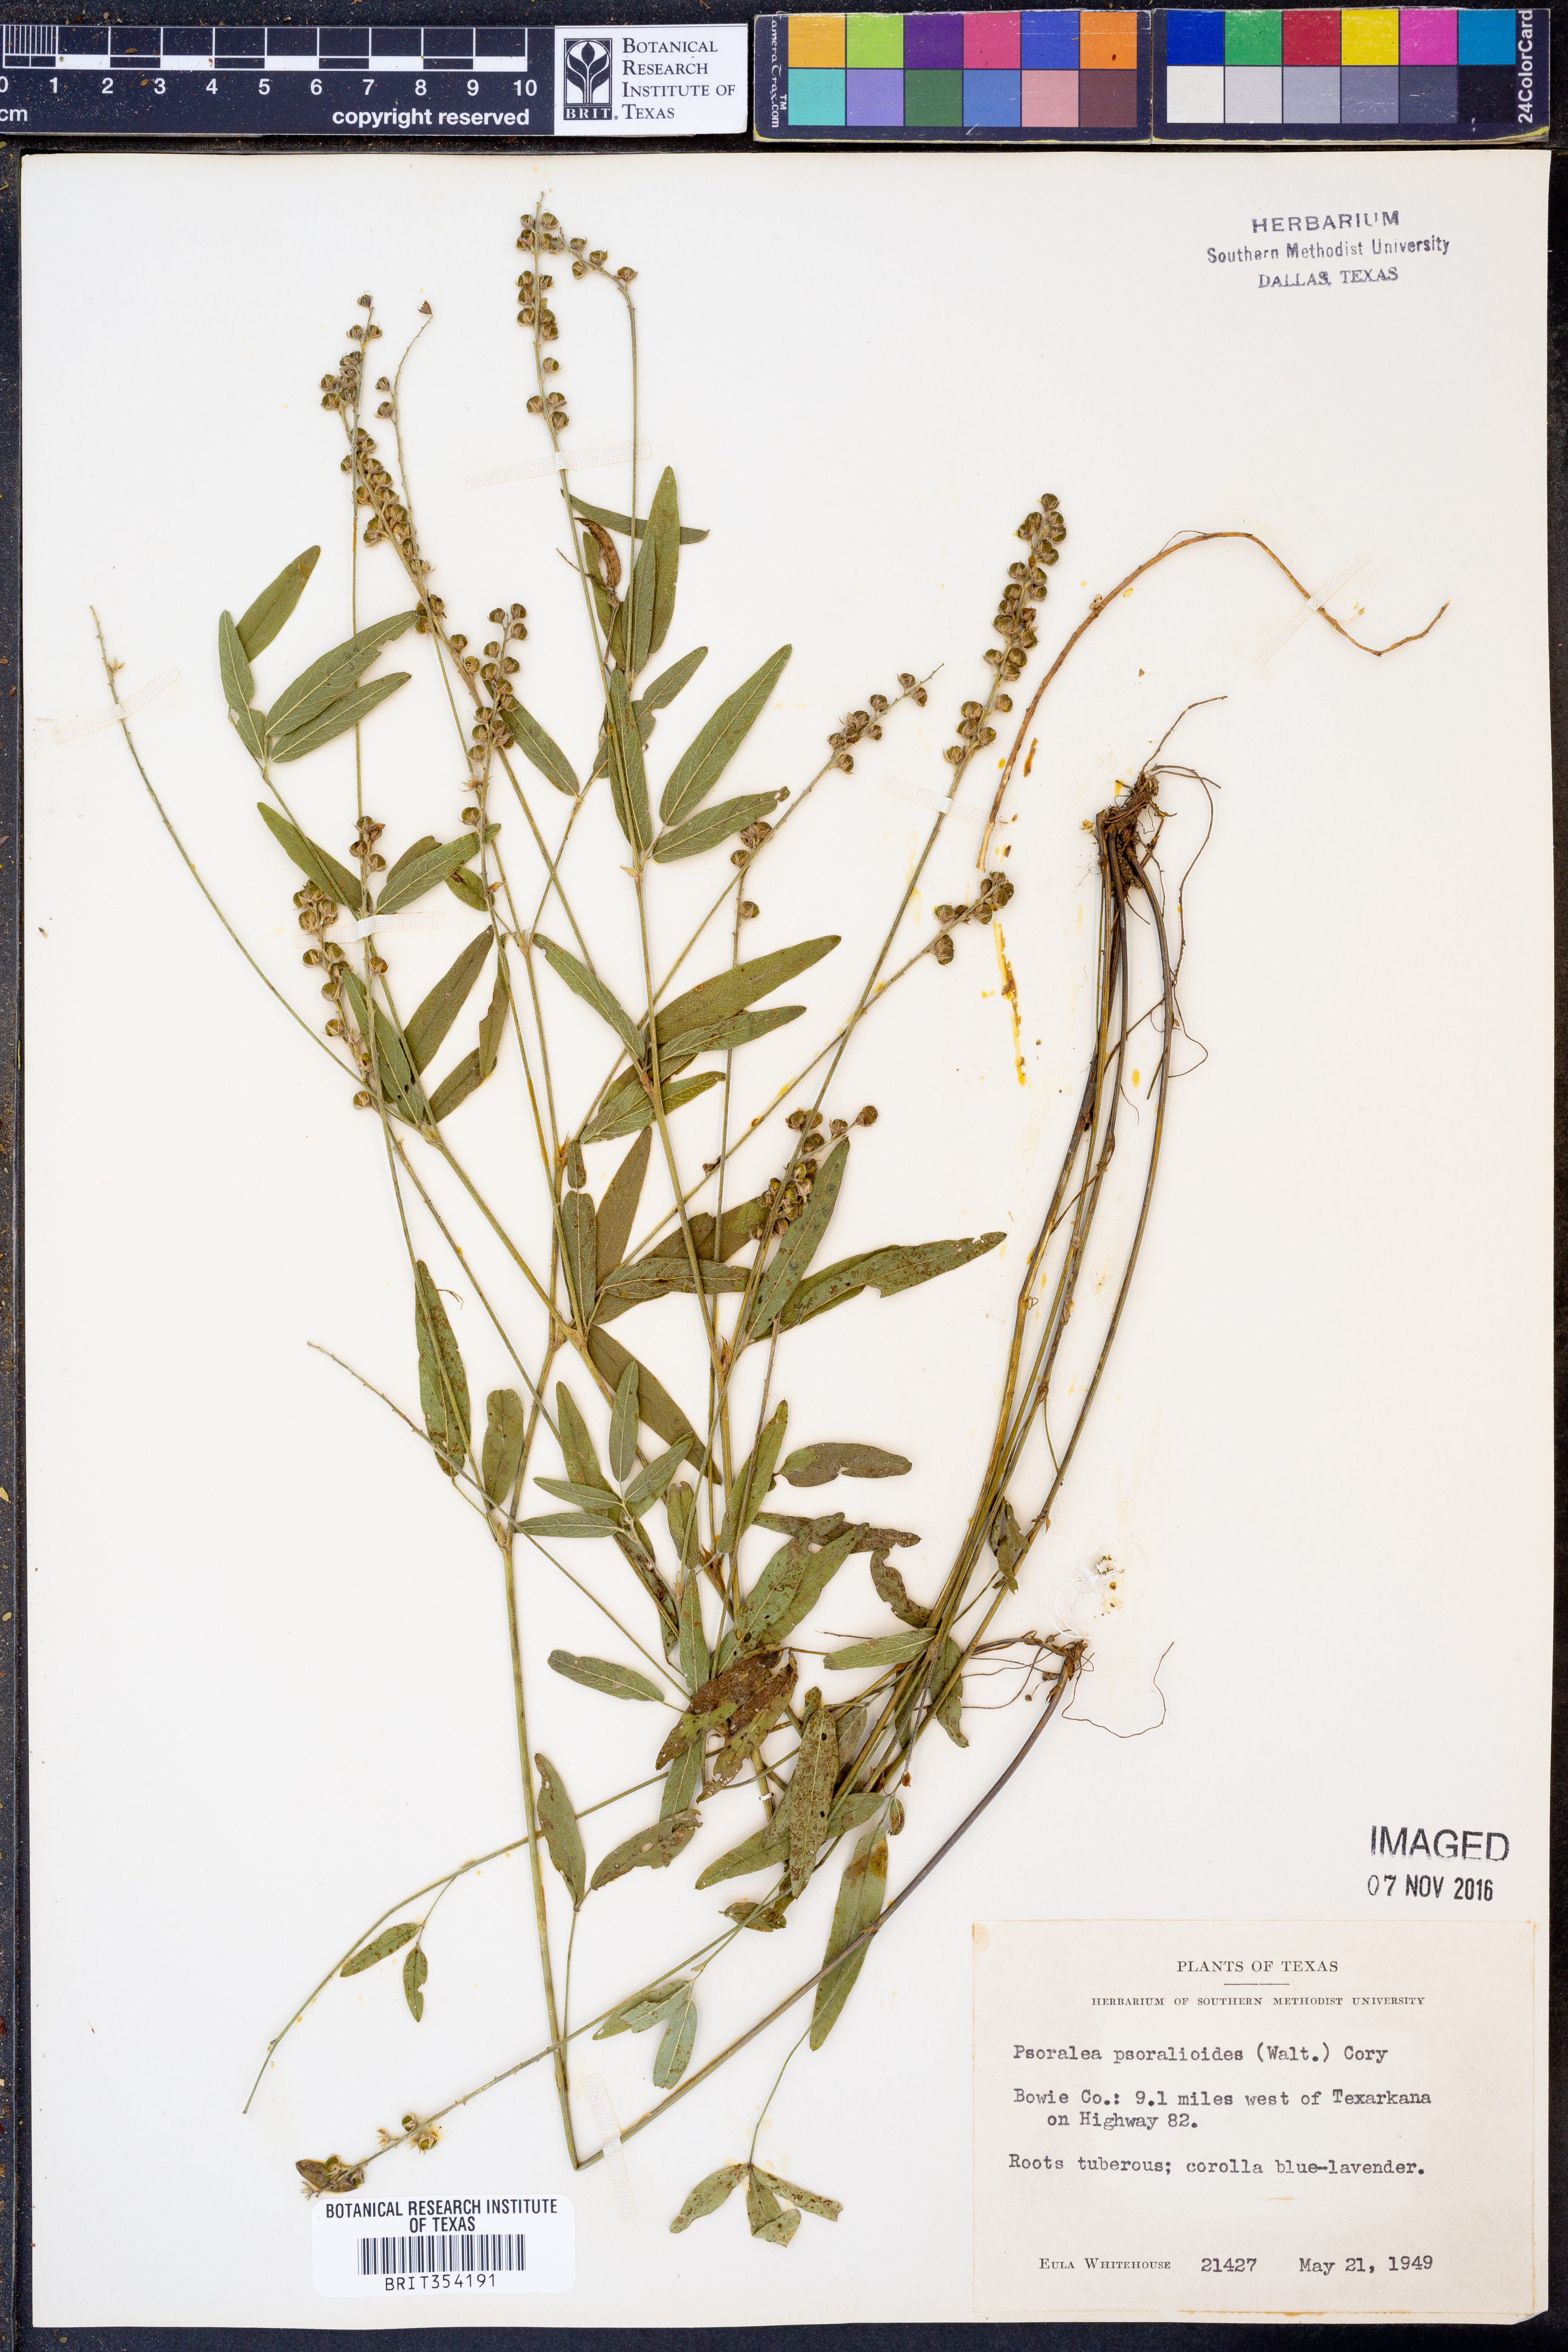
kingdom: Plantae
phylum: Tracheophyta
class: Magnoliopsida
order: Fabales
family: Fabaceae
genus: Orbexilum
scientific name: Orbexilum psoralioides
